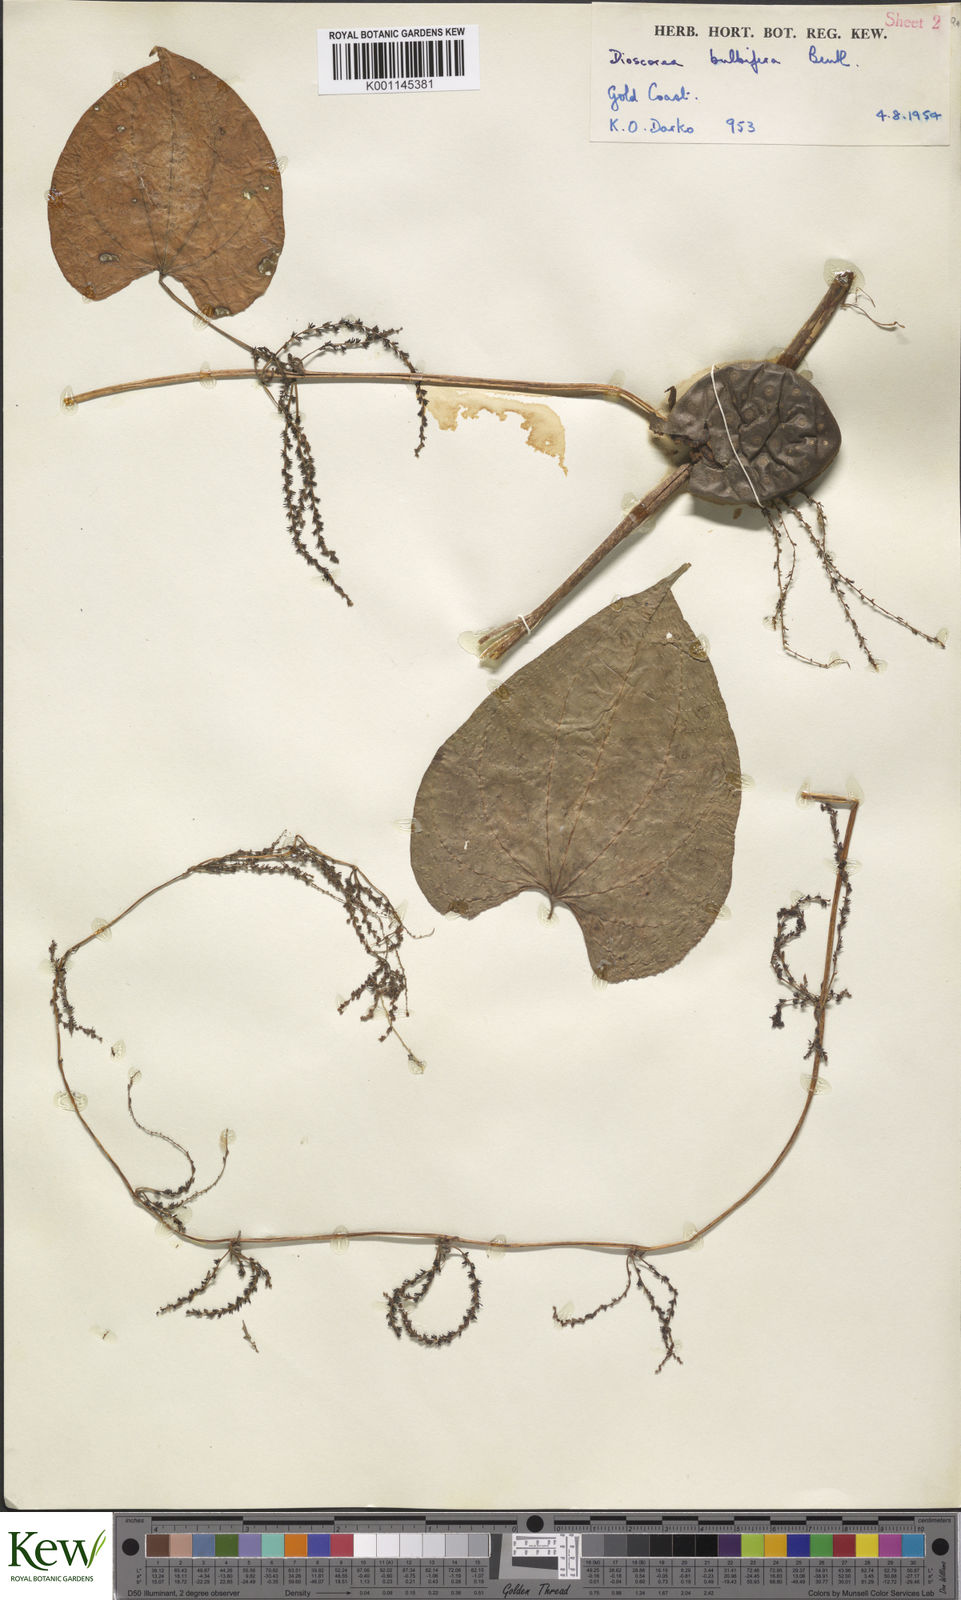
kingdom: Plantae
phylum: Tracheophyta
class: Liliopsida
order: Dioscoreales
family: Dioscoreaceae
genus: Dioscorea
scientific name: Dioscorea bulbifera
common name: Air yam
